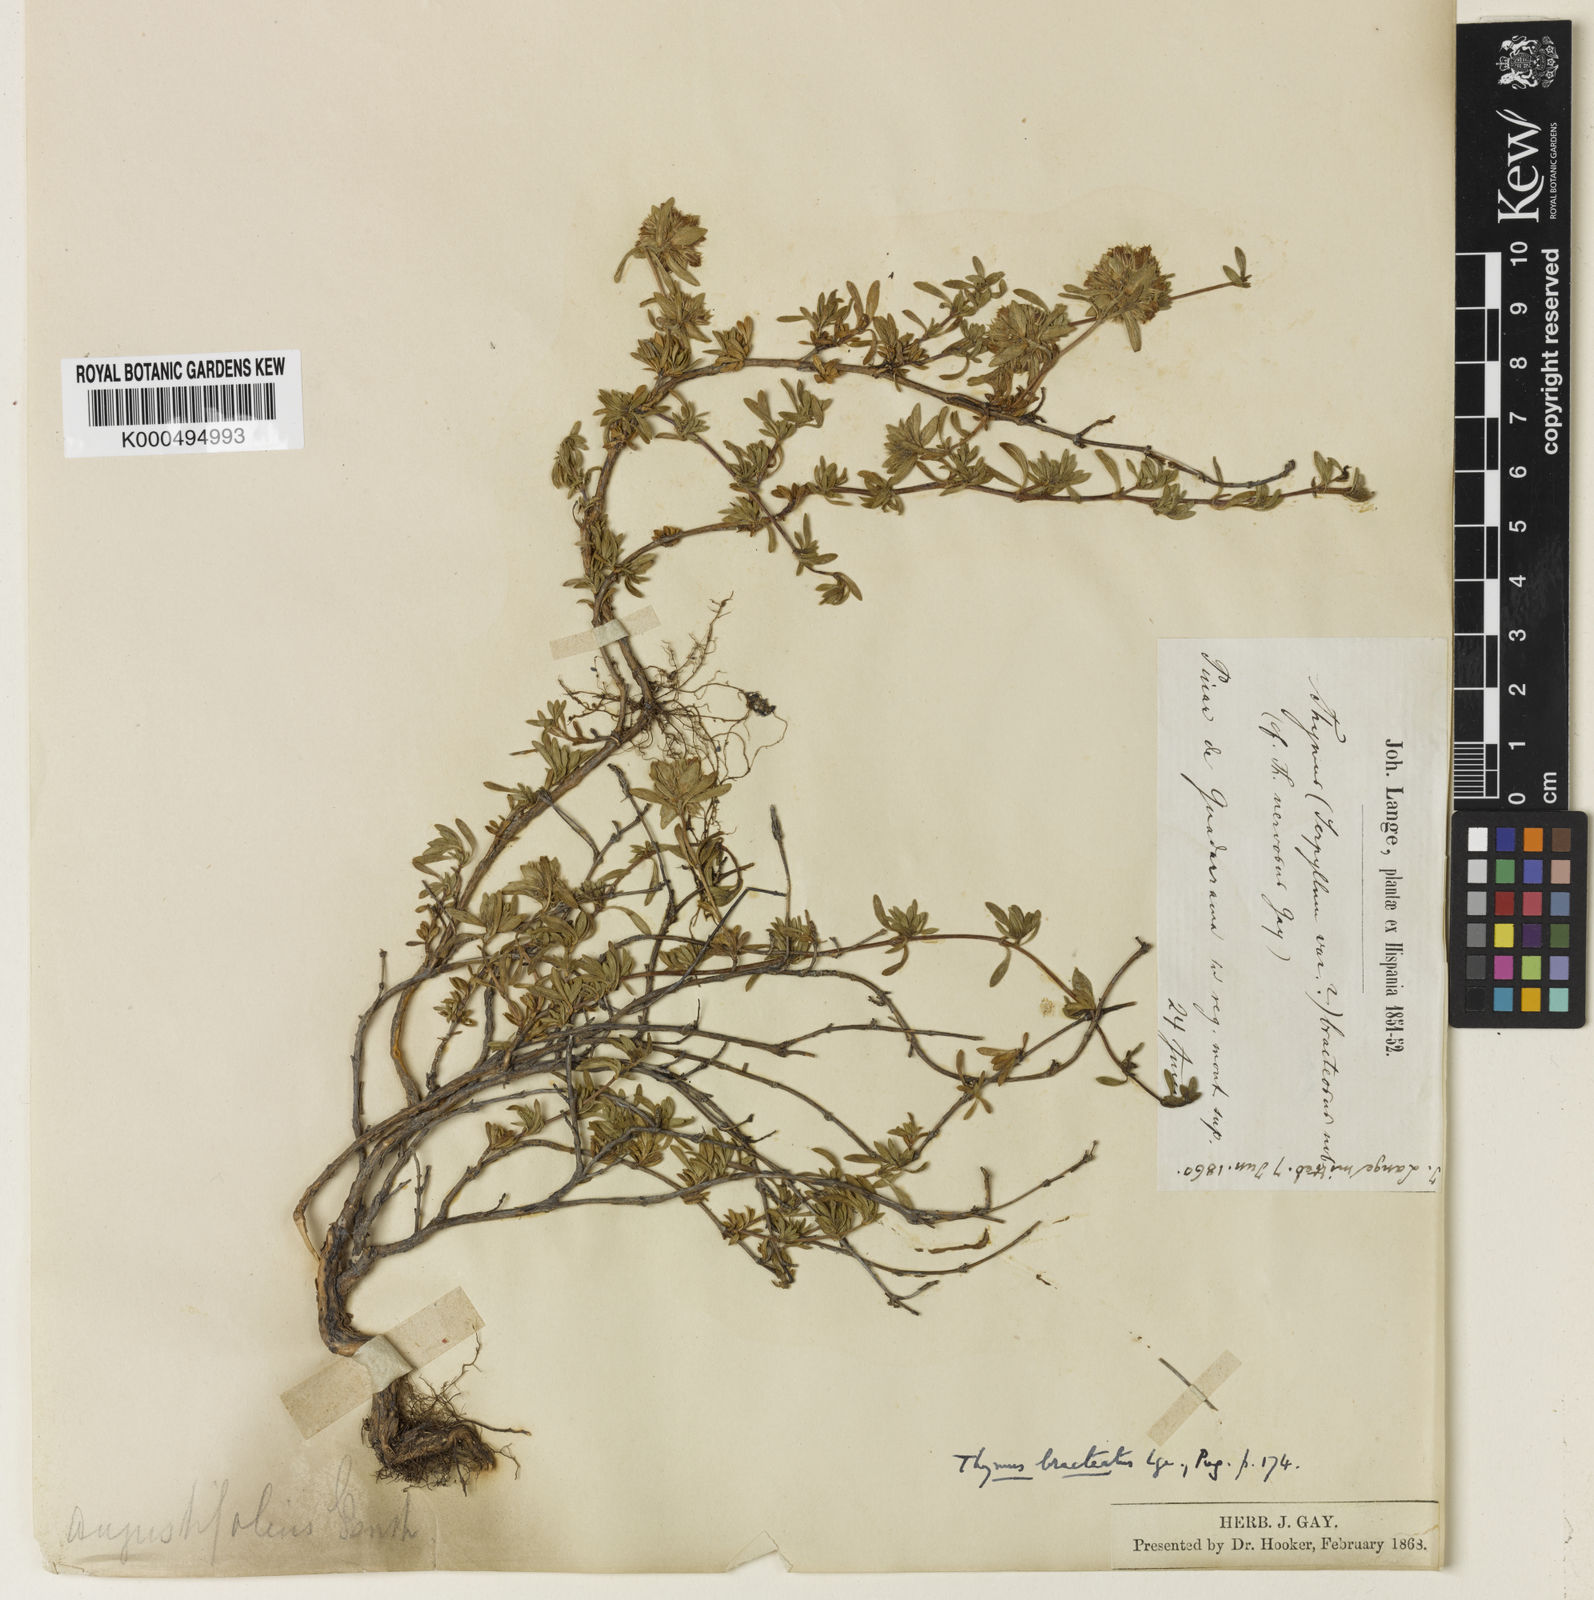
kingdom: Plantae
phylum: Tracheophyta
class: Magnoliopsida
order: Lamiales
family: Lamiaceae
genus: Thymus
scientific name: Thymus bracteatus
